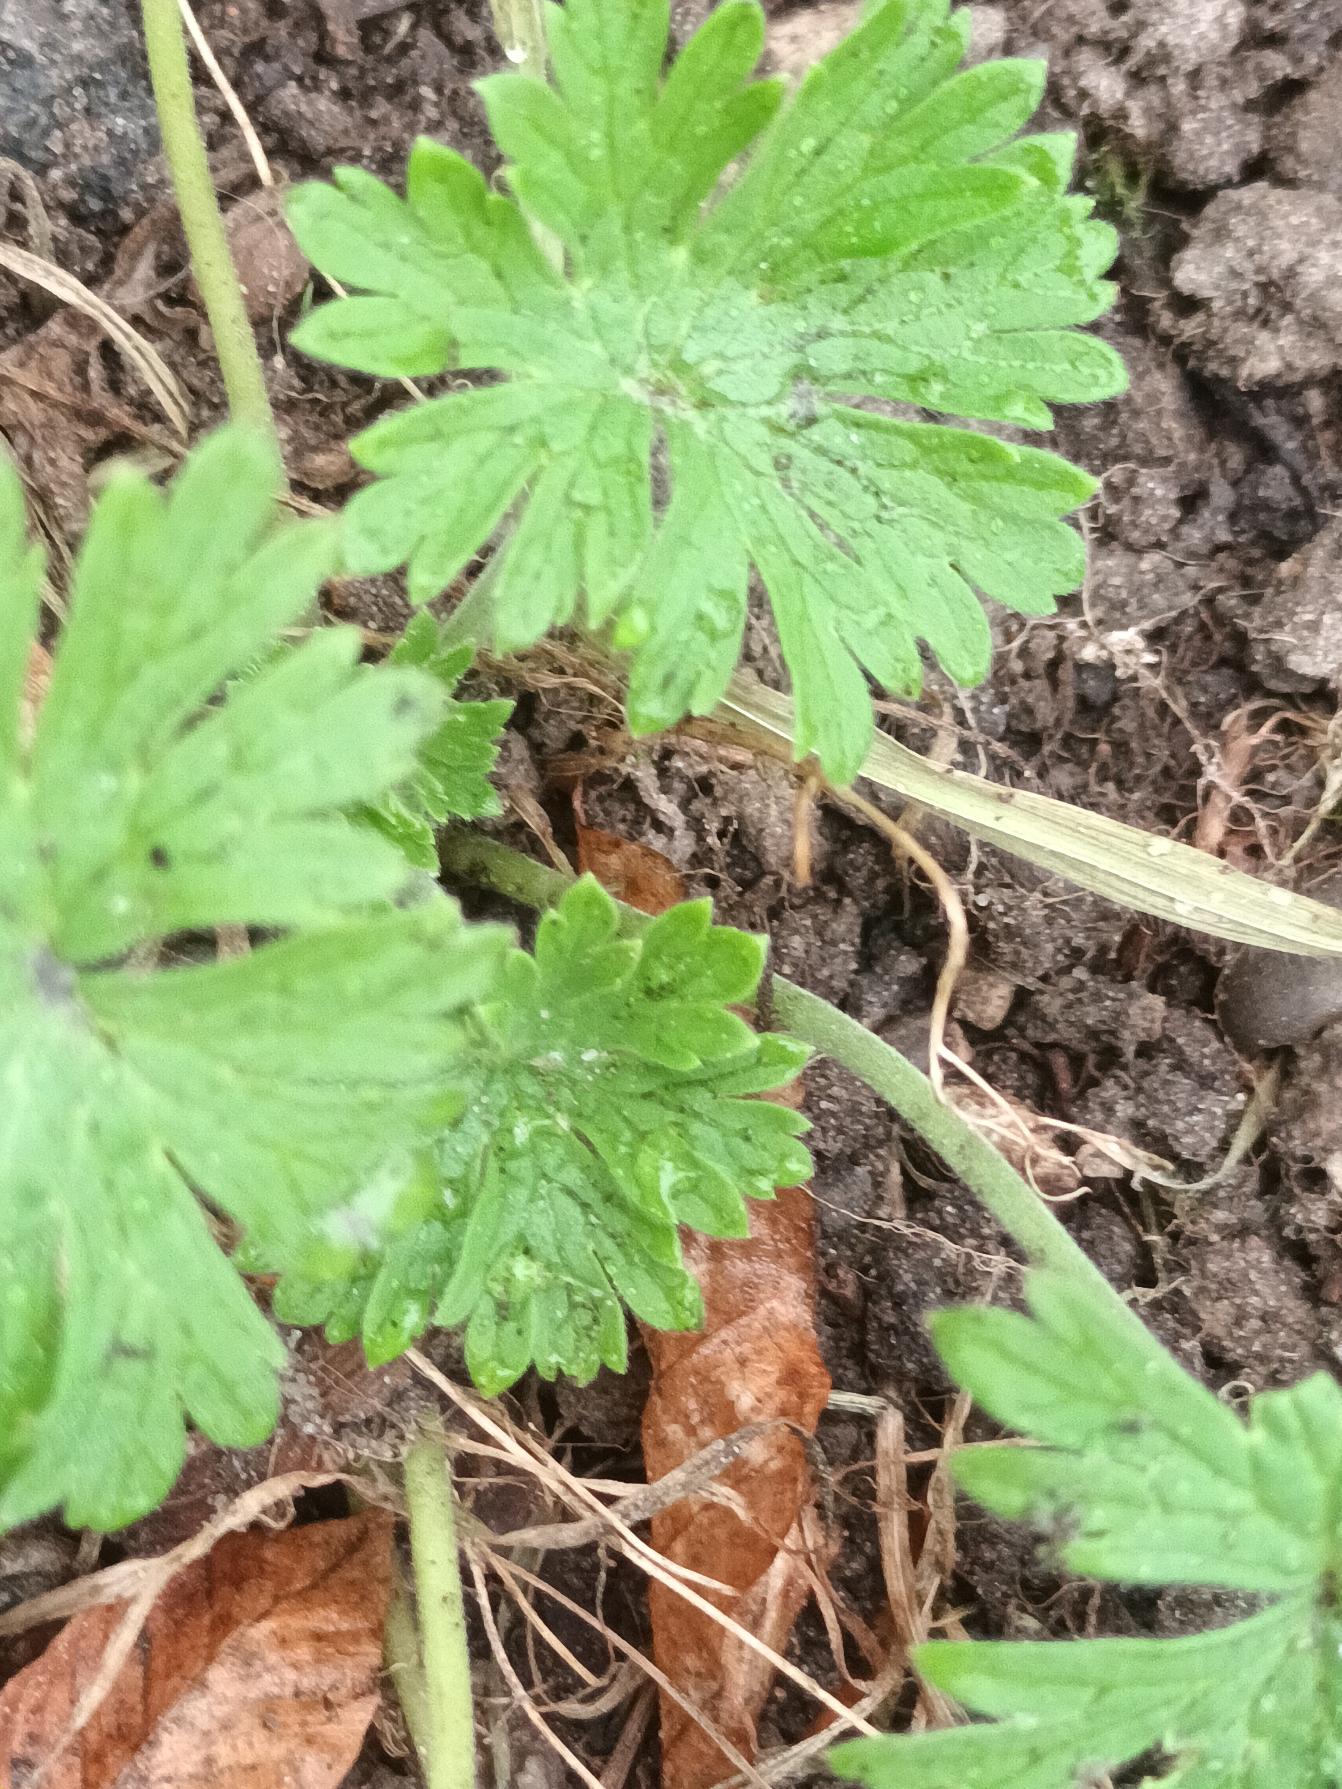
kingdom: Plantae
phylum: Tracheophyta
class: Magnoliopsida
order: Geraniales
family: Geraniaceae
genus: Geranium
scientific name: Geranium pusillum
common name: Liden storkenæb
